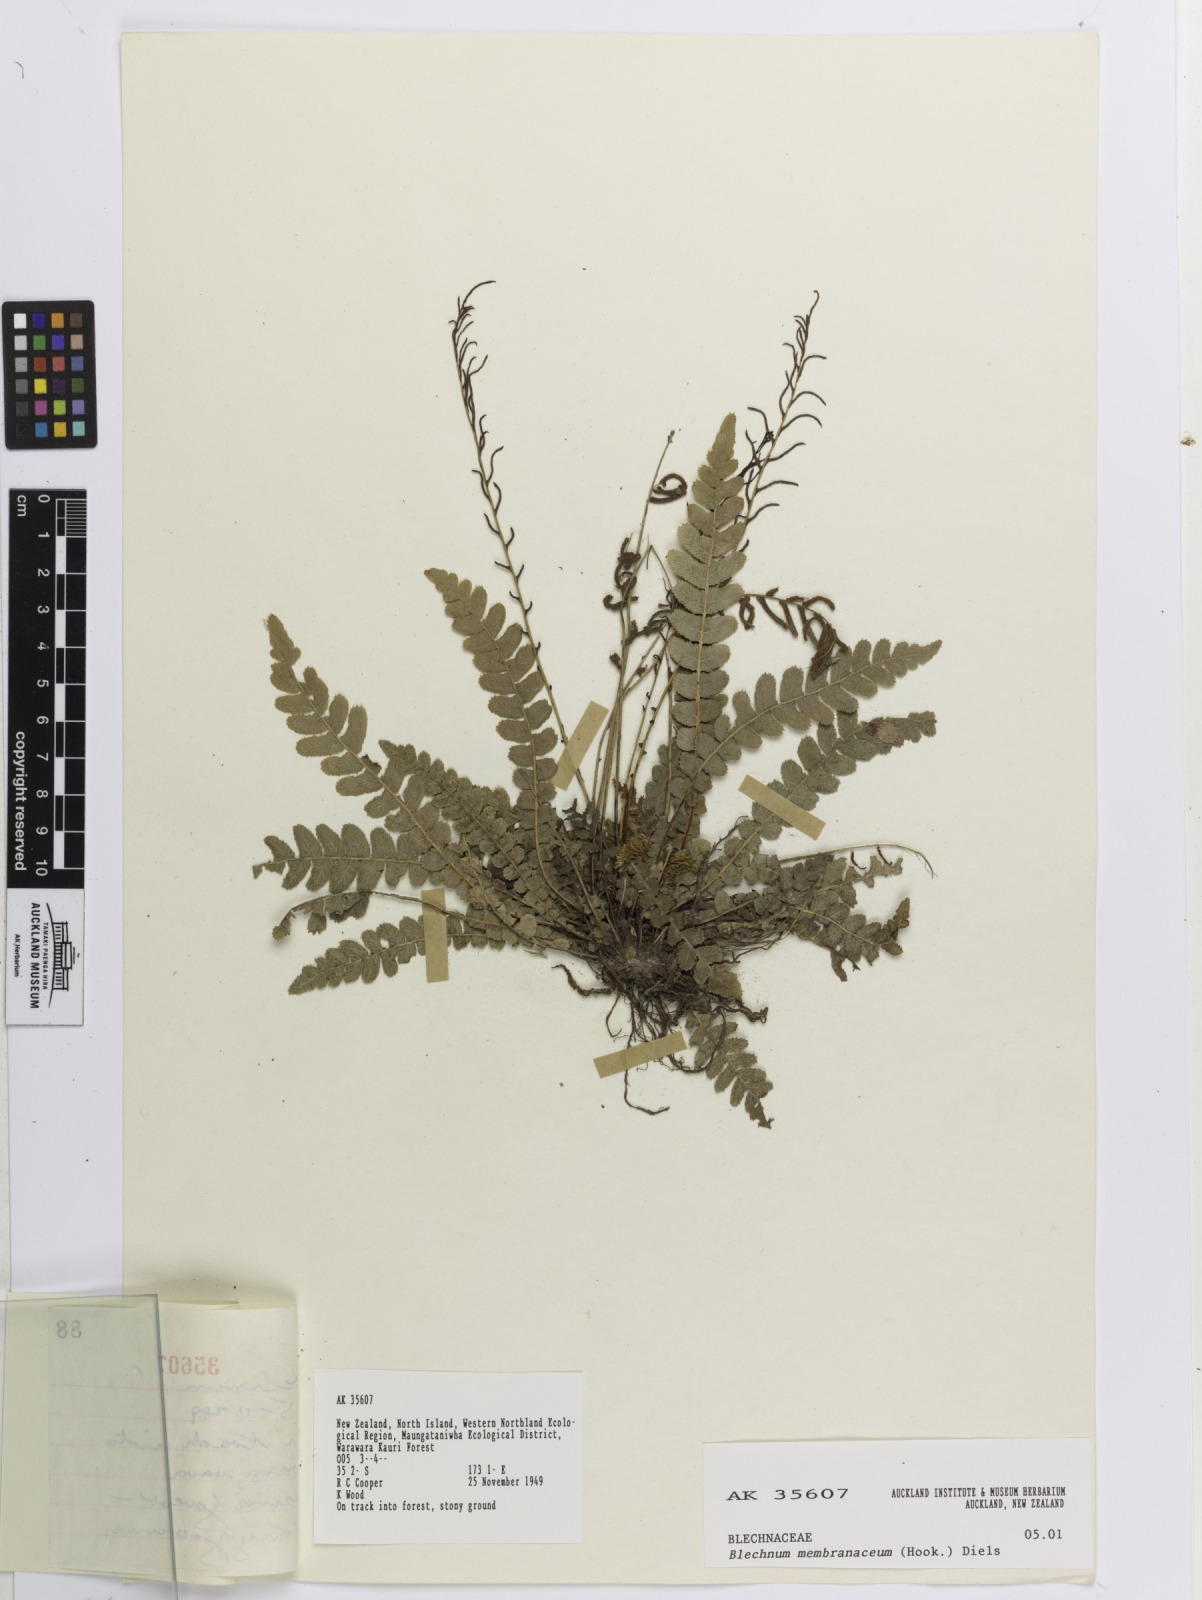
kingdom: Plantae
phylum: Tracheophyta
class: Polypodiopsida
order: Polypodiales
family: Blechnaceae
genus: Austroblechnum
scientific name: Austroblechnum membranaceum
